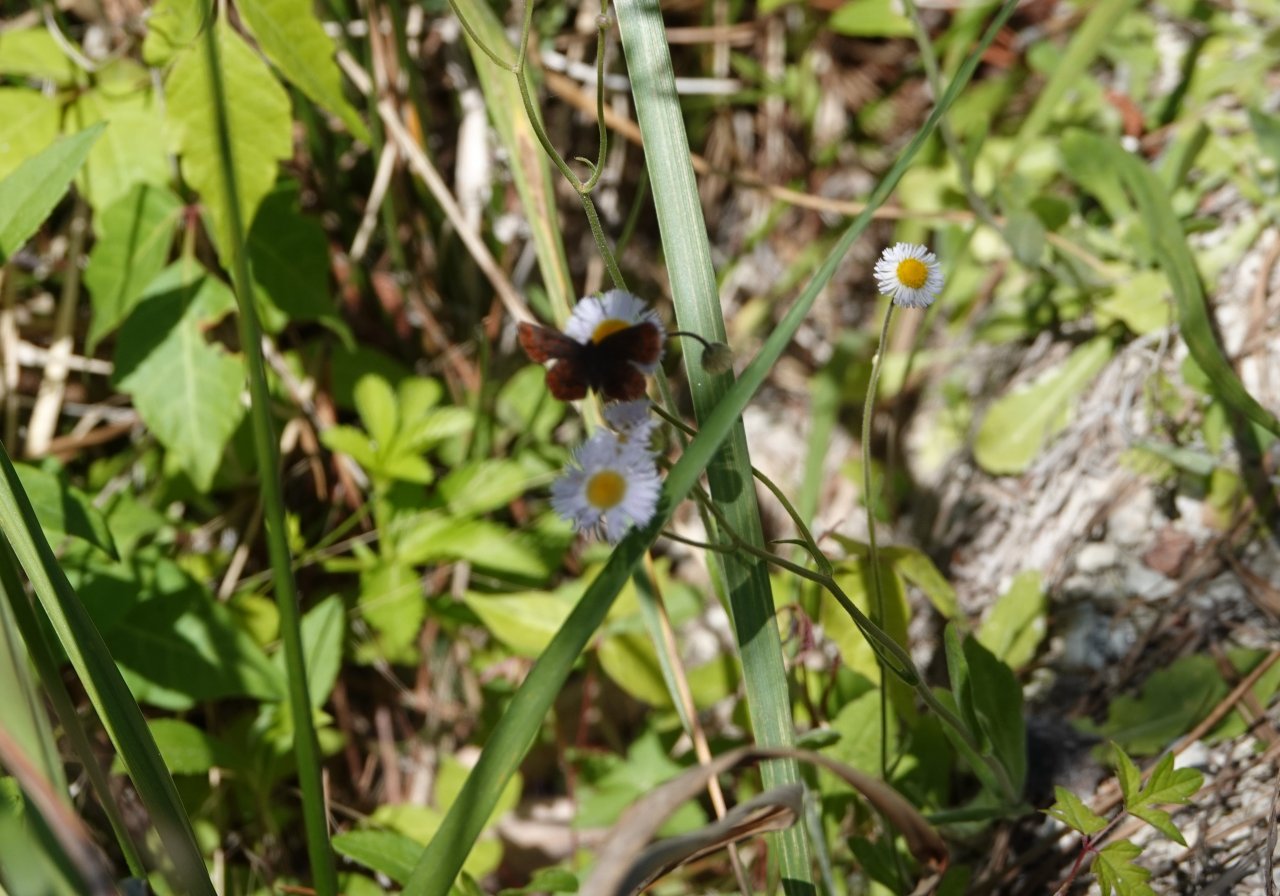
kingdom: Animalia
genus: Calephelis
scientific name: Calephelis virginiensis
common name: Little Metalmark
